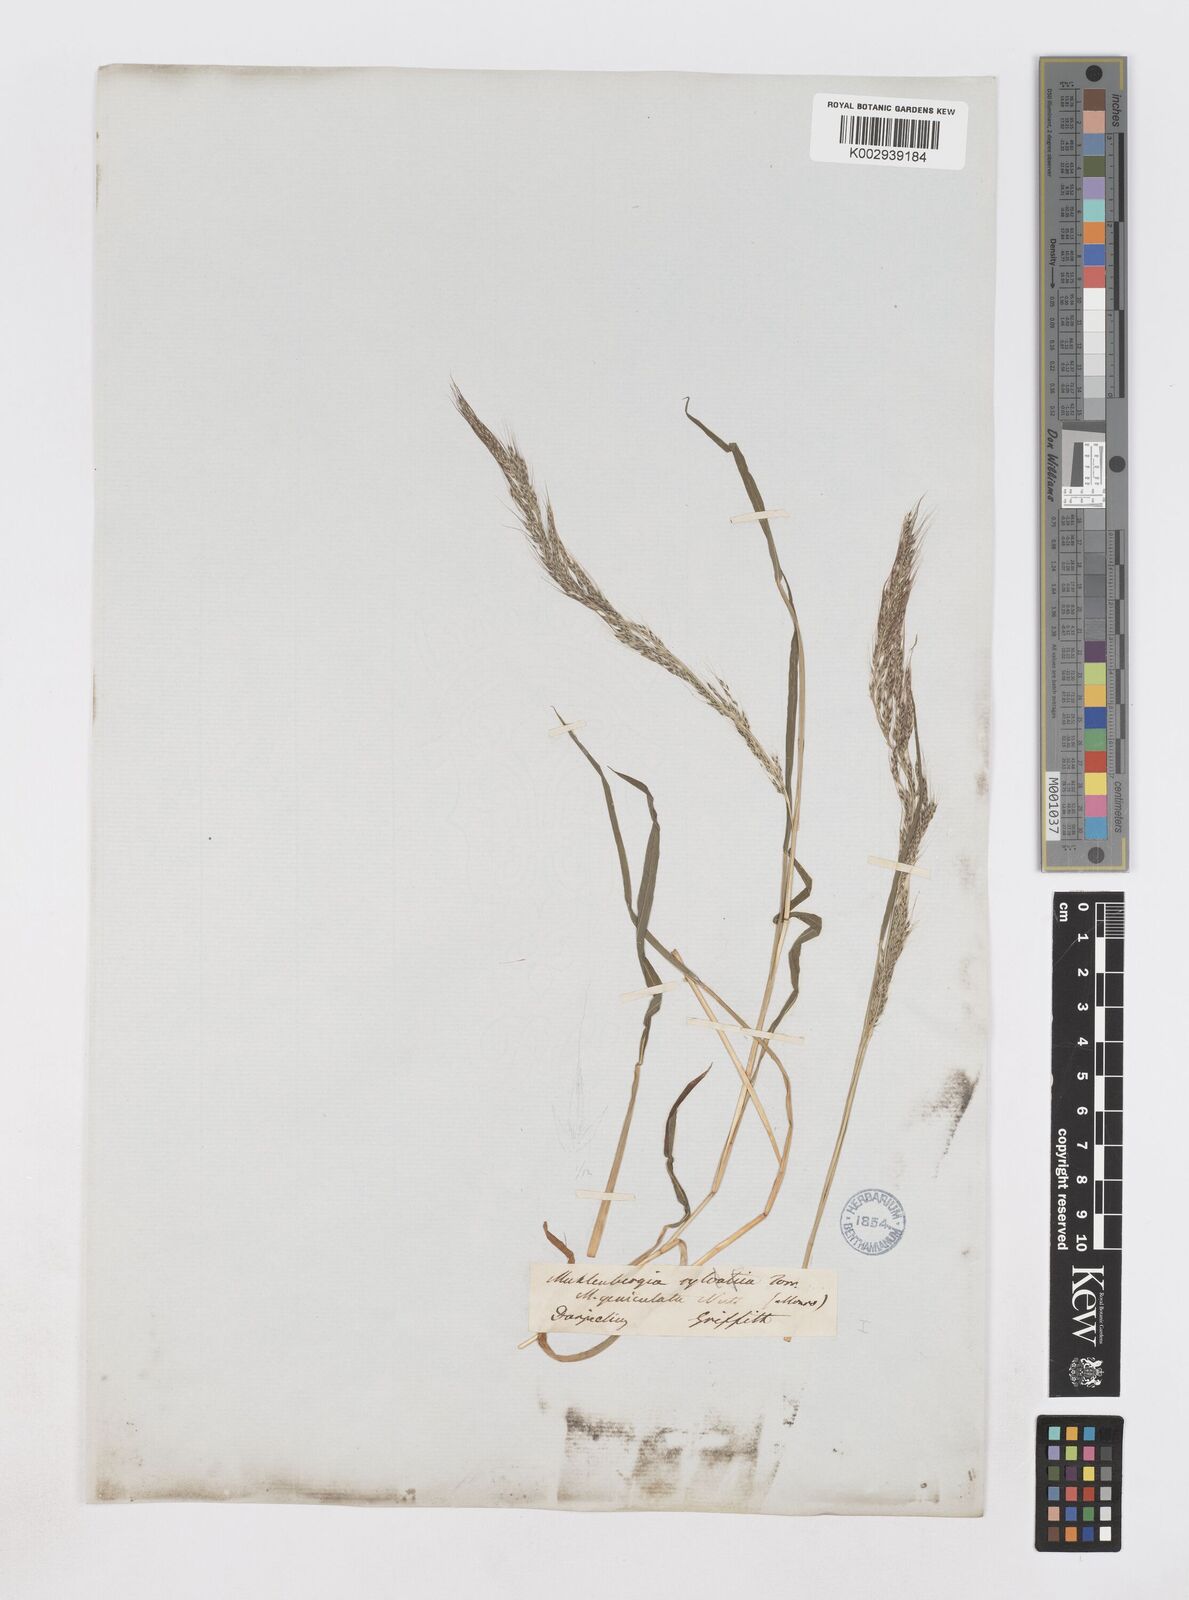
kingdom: Plantae
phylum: Tracheophyta
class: Liliopsida
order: Poales
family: Poaceae
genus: Muhlenbergia
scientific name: Muhlenbergia huegelii
